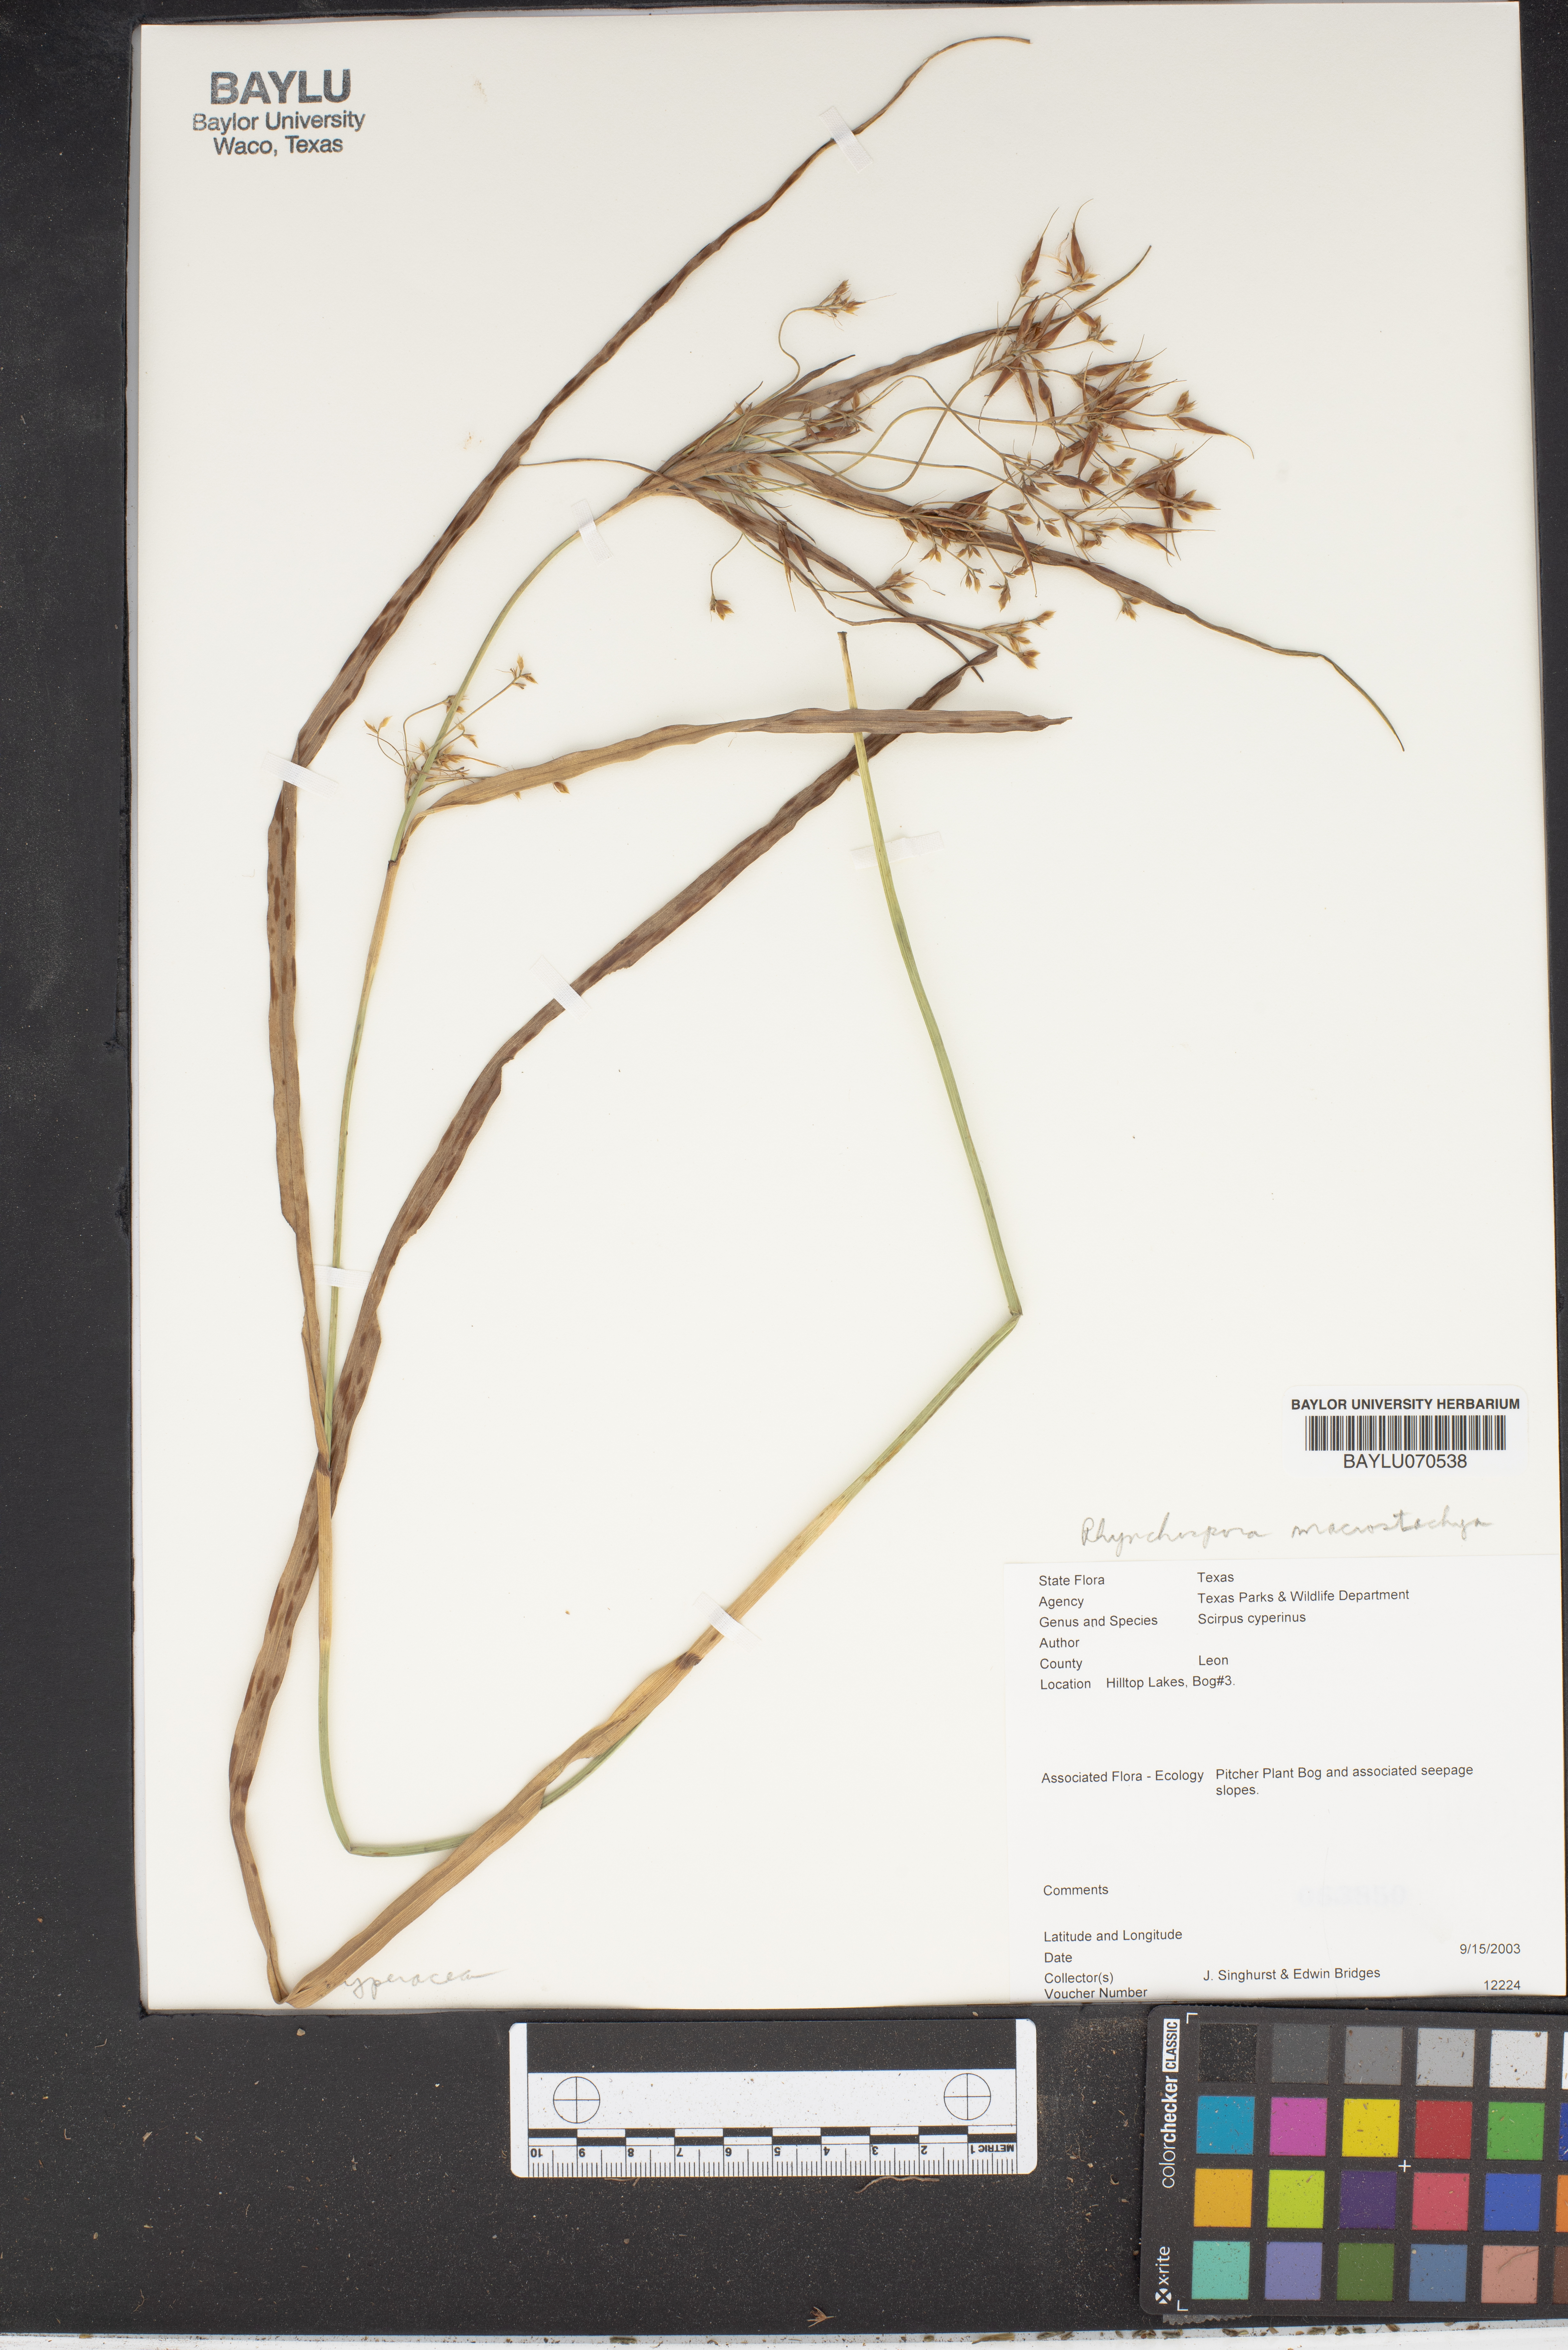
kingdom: Plantae
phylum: Tracheophyta
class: Liliopsida
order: Poales
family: Cyperaceae
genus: Rhynchospora
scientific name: Rhynchospora macrostachya
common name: Tall beakrush
